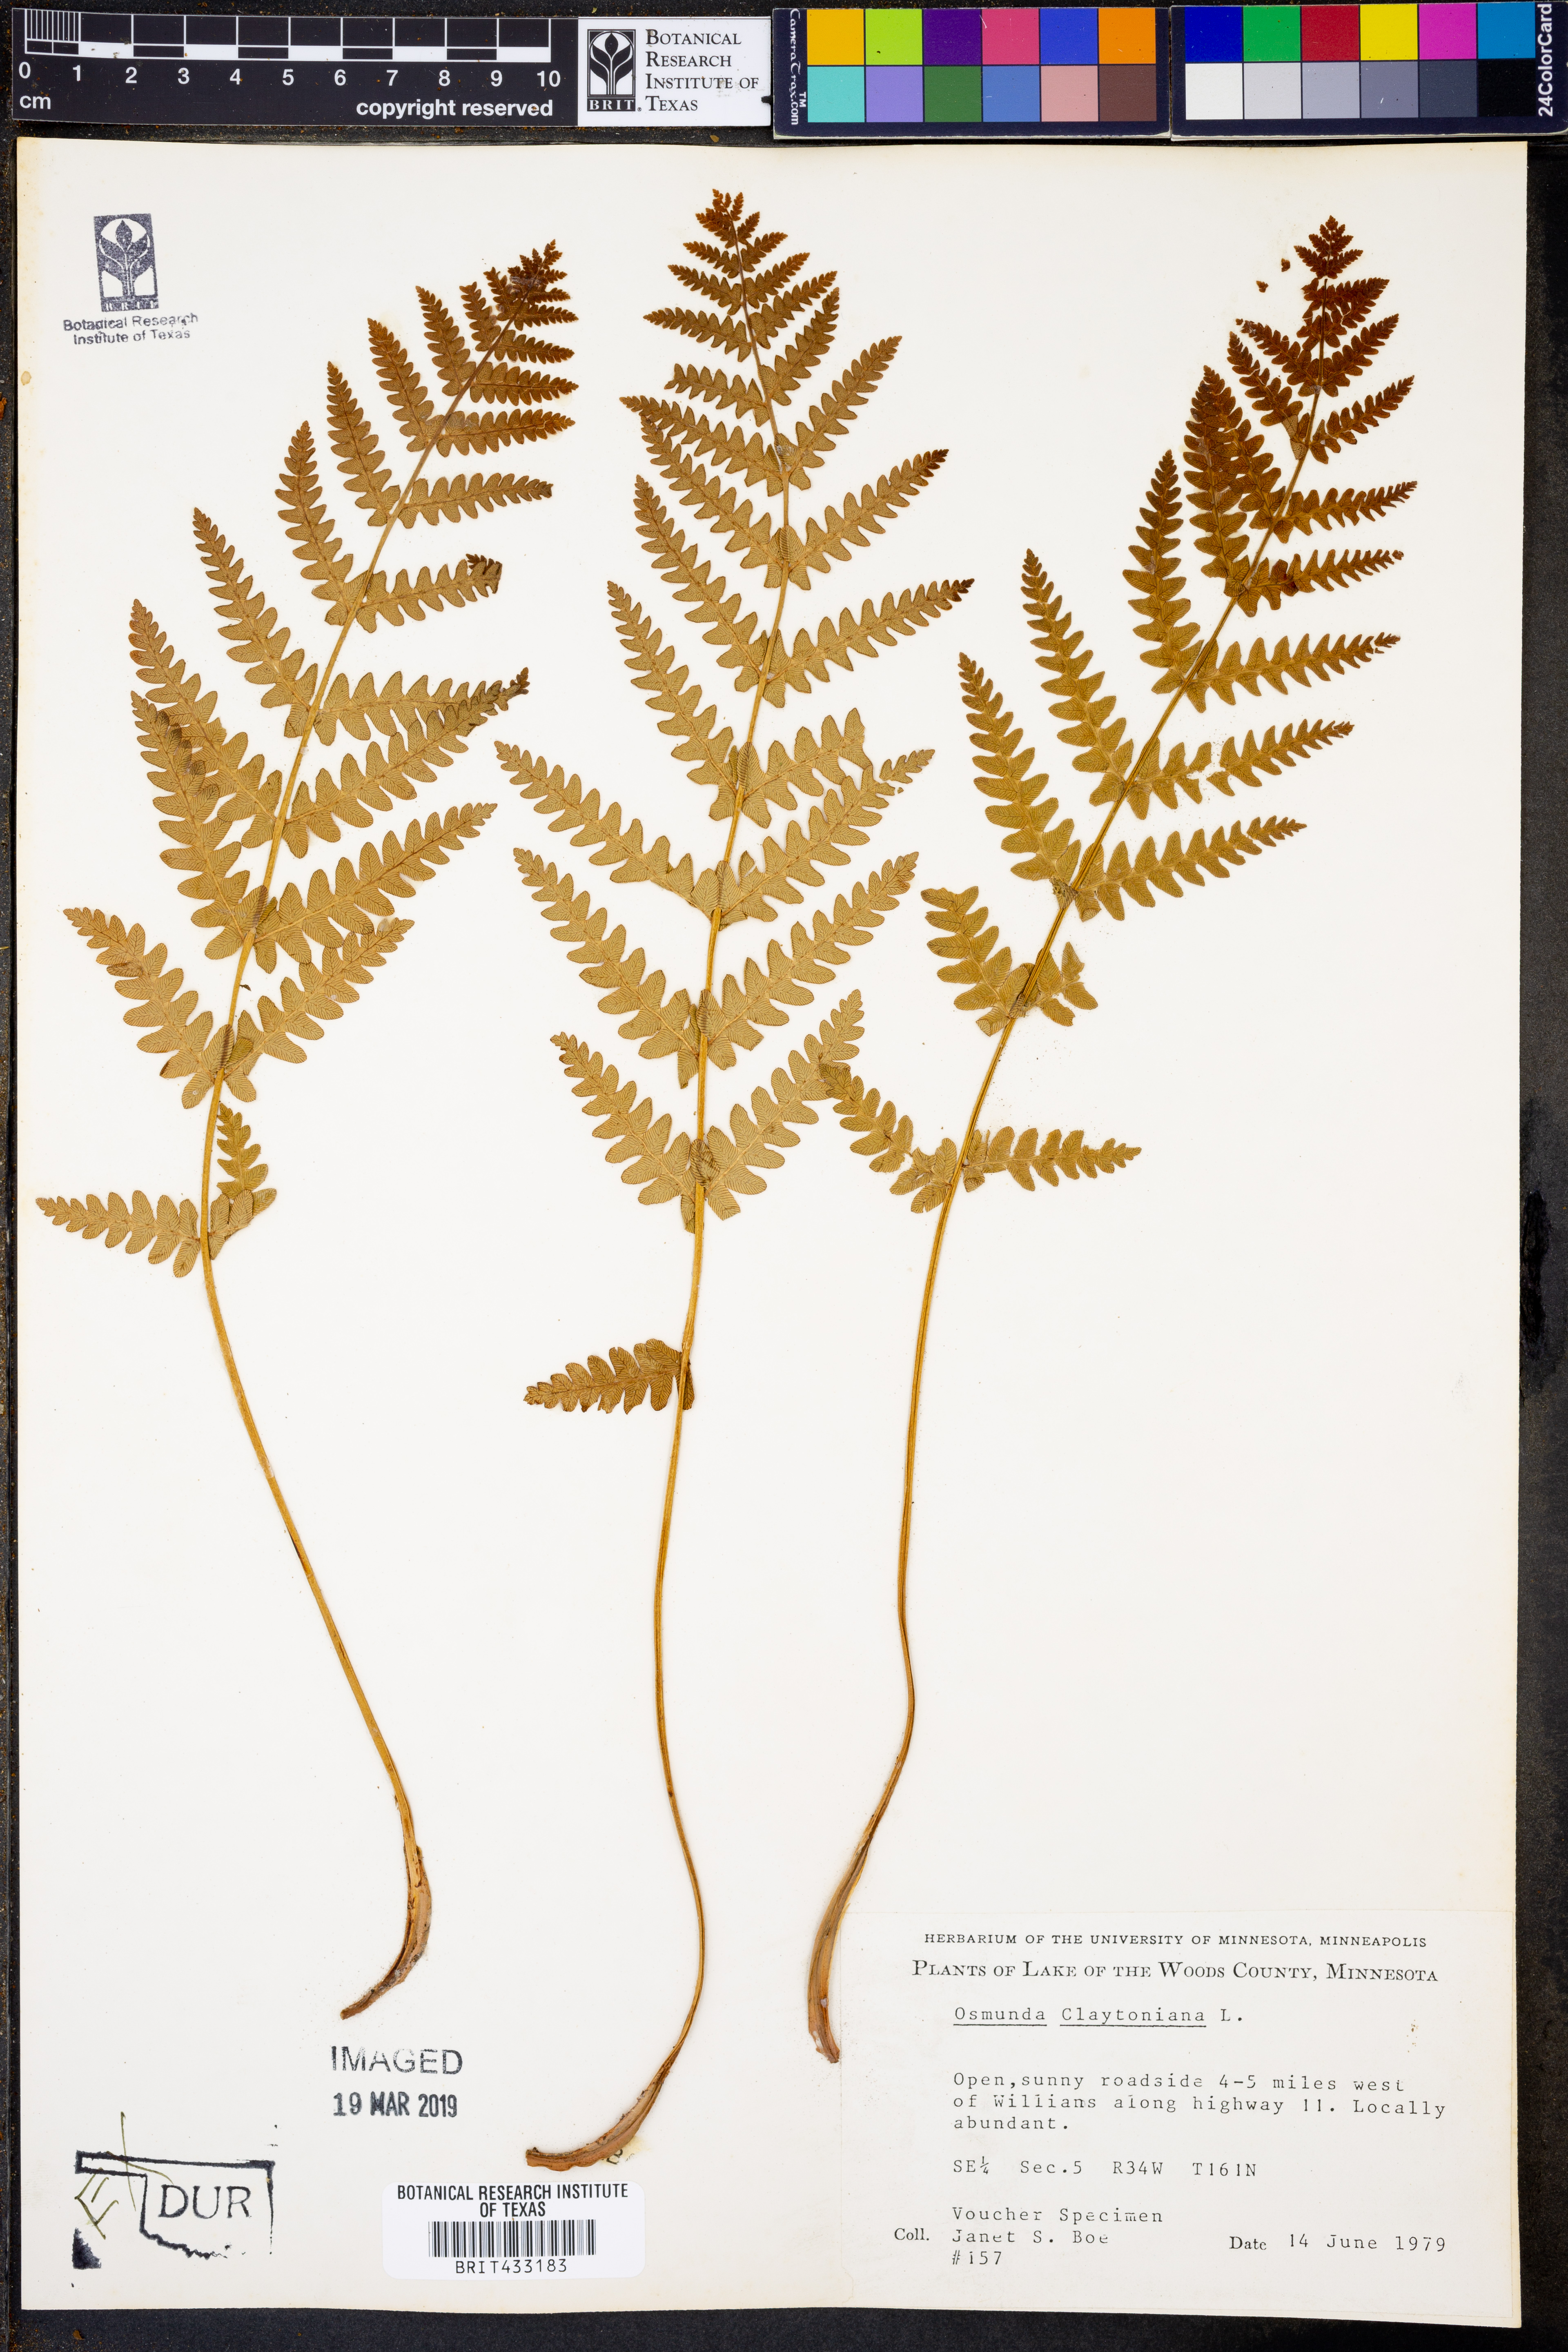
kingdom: Plantae
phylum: Tracheophyta
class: Polypodiopsida
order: Osmundales
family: Osmundaceae
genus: Claytosmunda
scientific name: Claytosmunda claytoniana
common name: Clayton's fern
